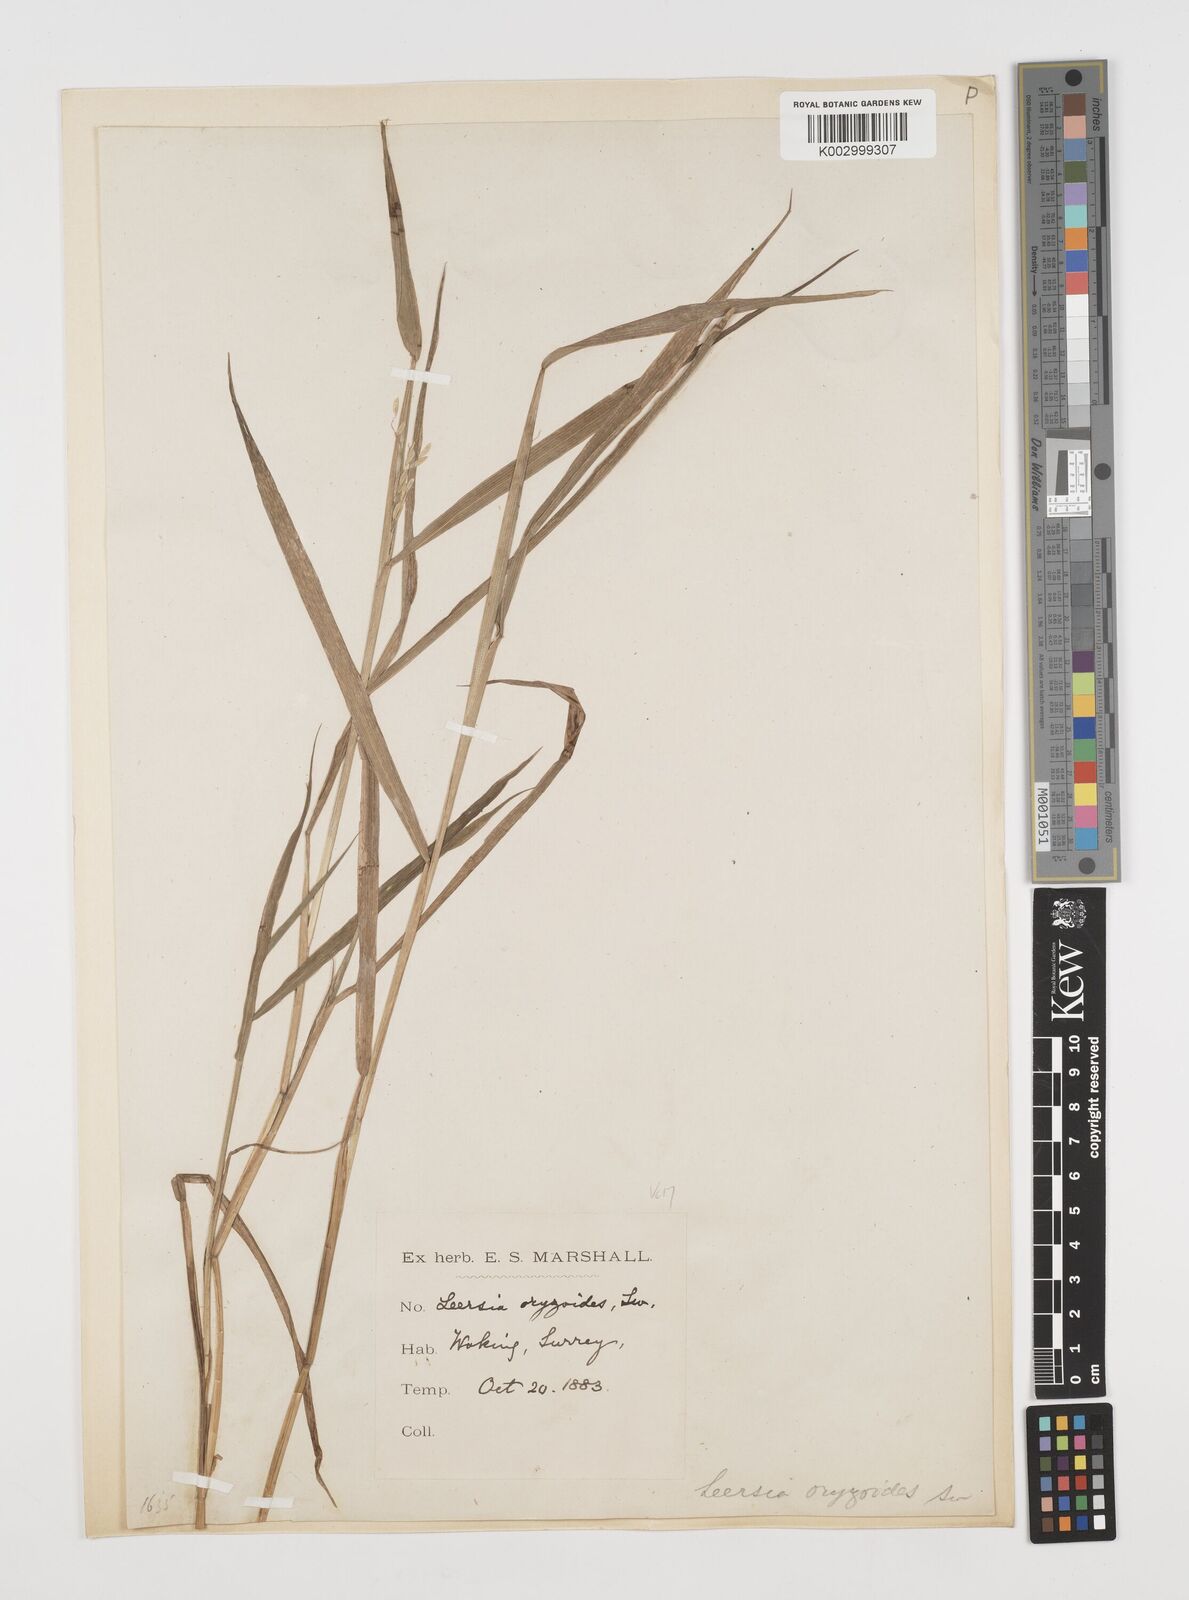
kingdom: Plantae
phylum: Tracheophyta
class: Liliopsida
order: Poales
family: Poaceae
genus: Leersia
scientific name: Leersia oryzoides
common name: Cut-grass
